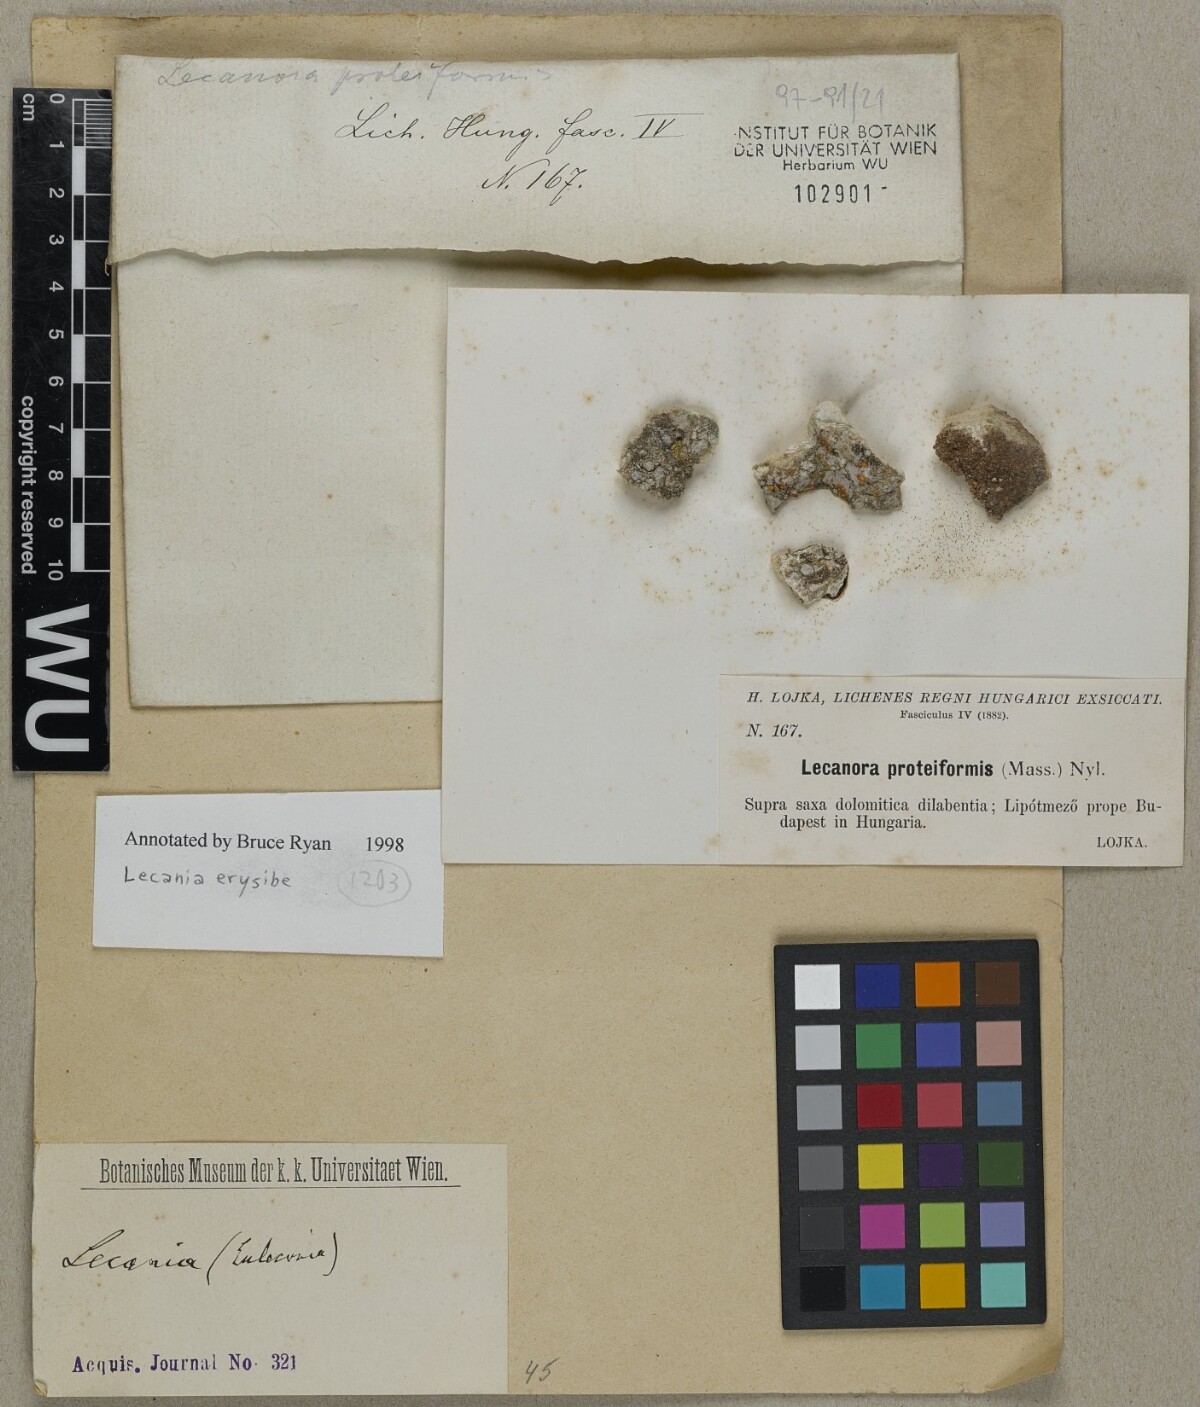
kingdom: Fungi
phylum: Ascomycota
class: Lecanoromycetes
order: Lecanorales
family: Ramalinaceae
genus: Lecania
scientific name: Lecania erysibe
